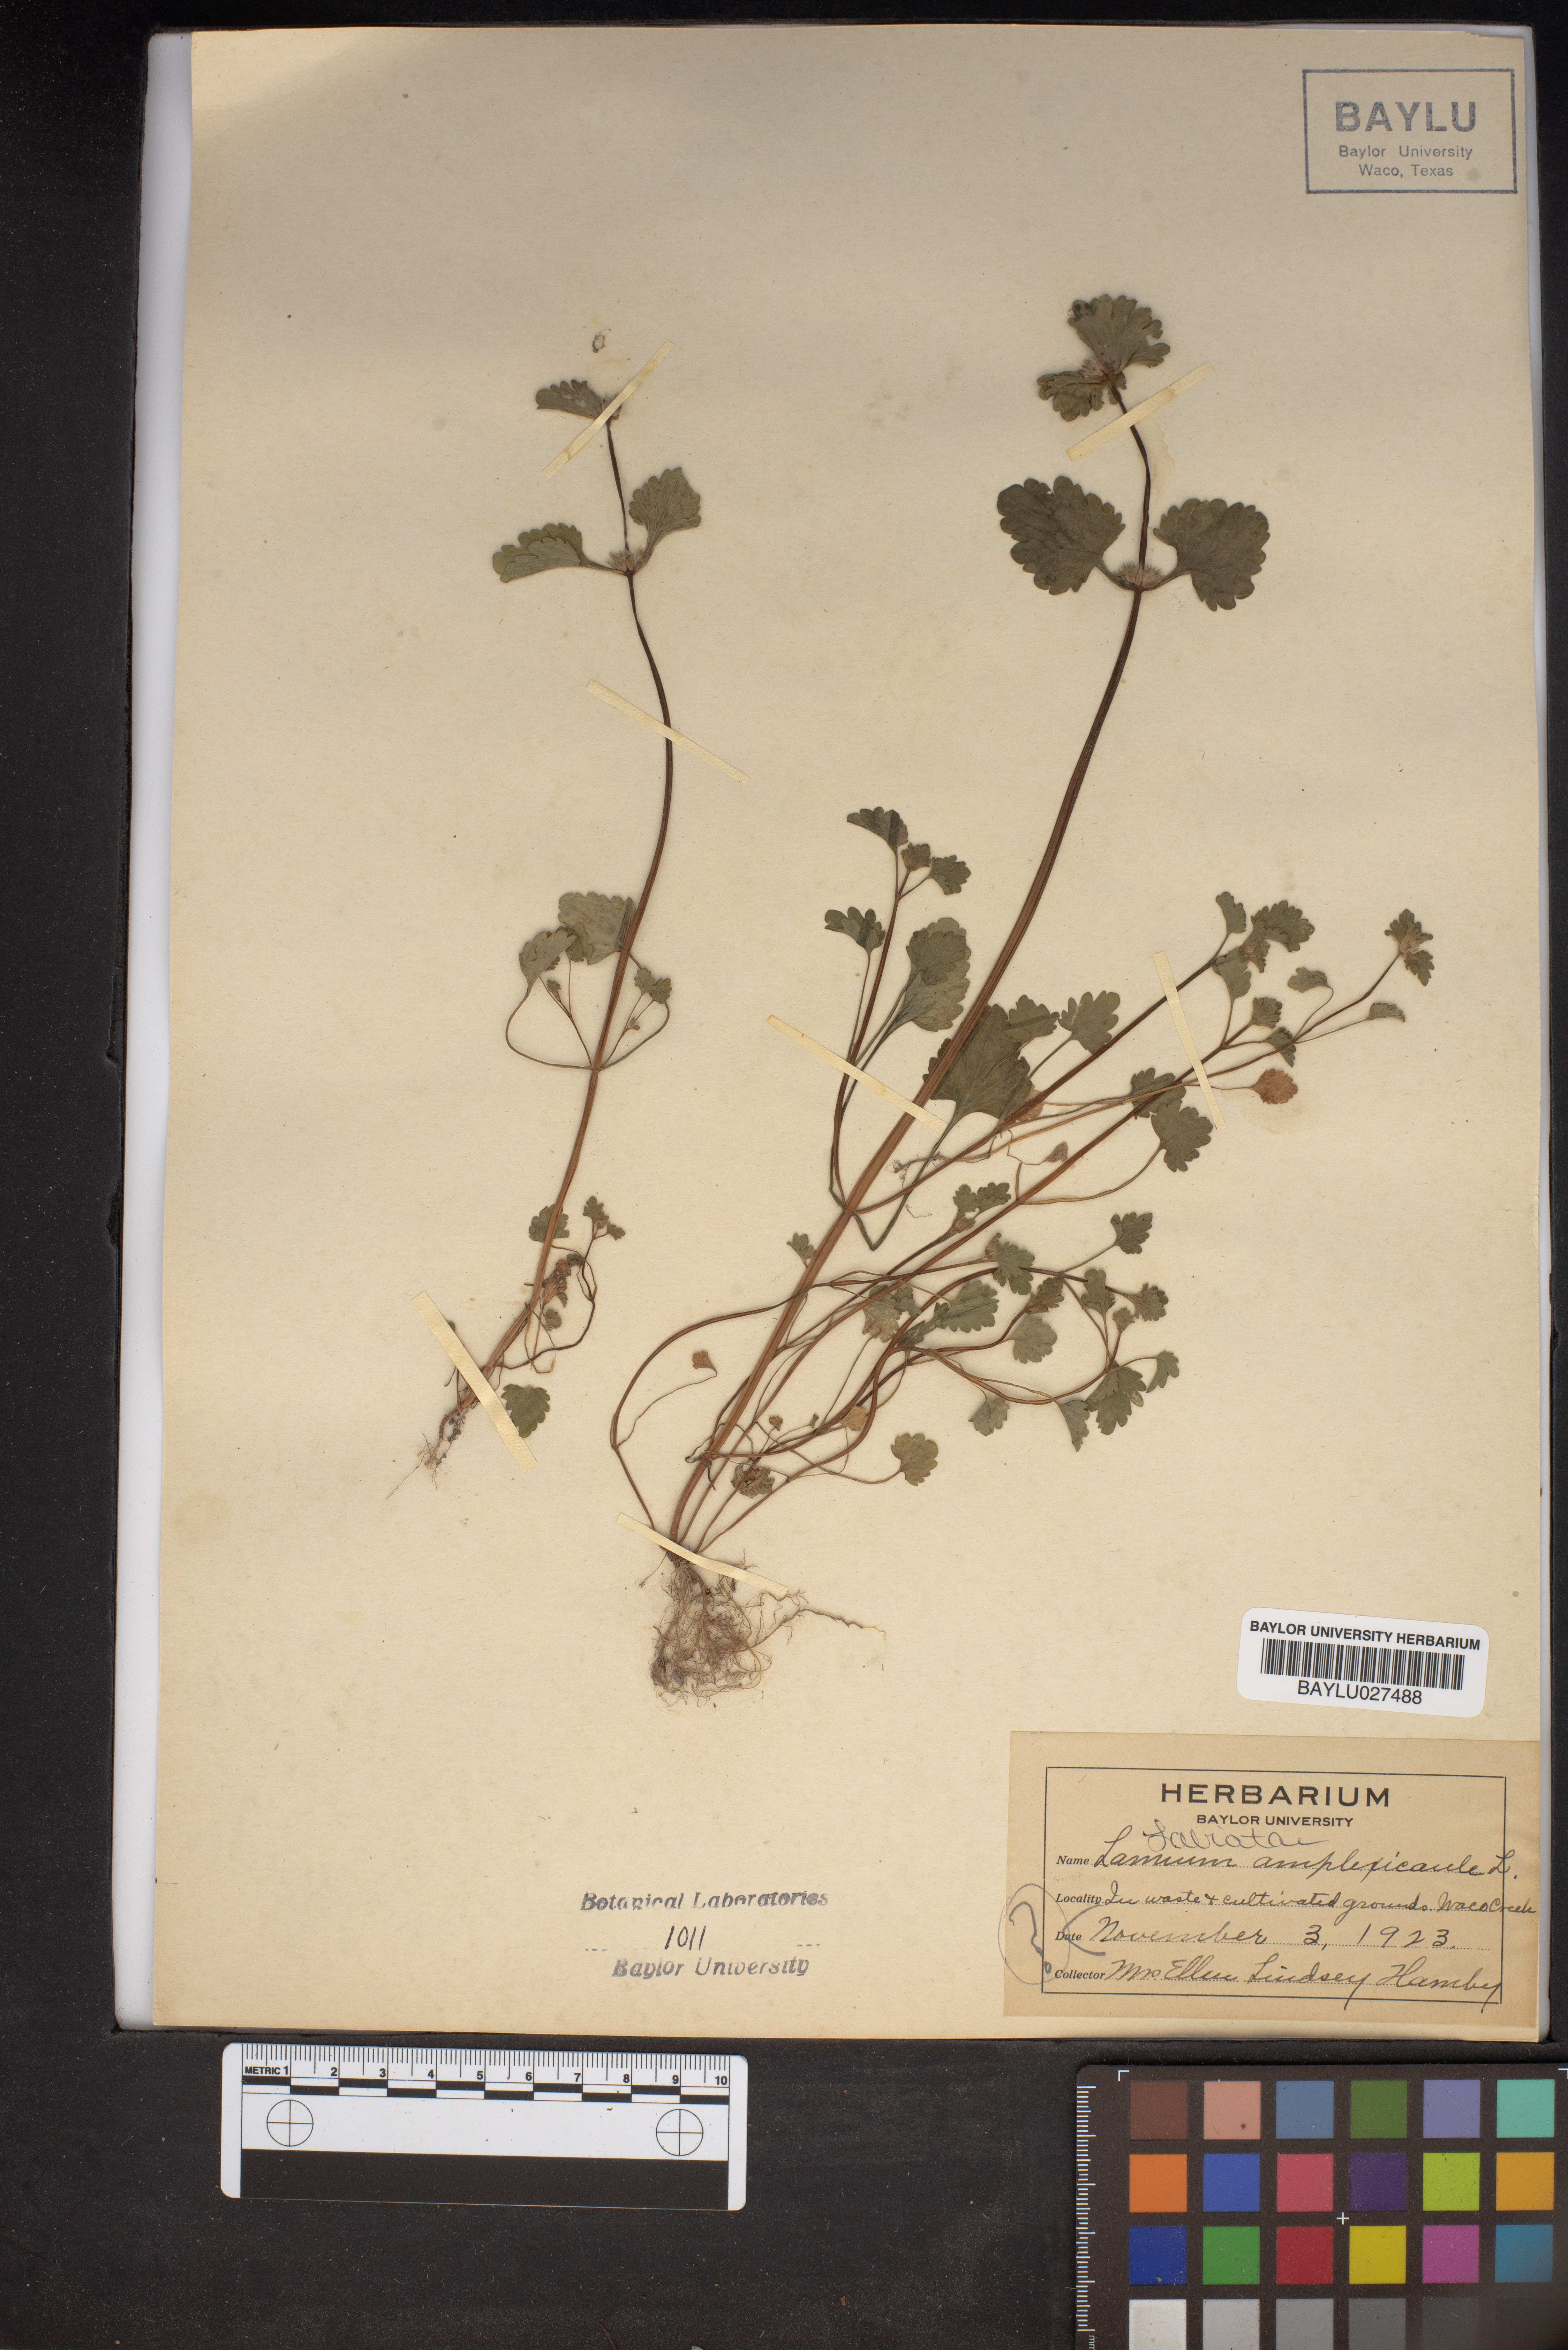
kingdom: Plantae
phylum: Tracheophyta
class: Magnoliopsida
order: Lamiales
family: Lamiaceae
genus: Lamium
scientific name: Lamium amplexicaule
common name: Henbit dead-nettle
